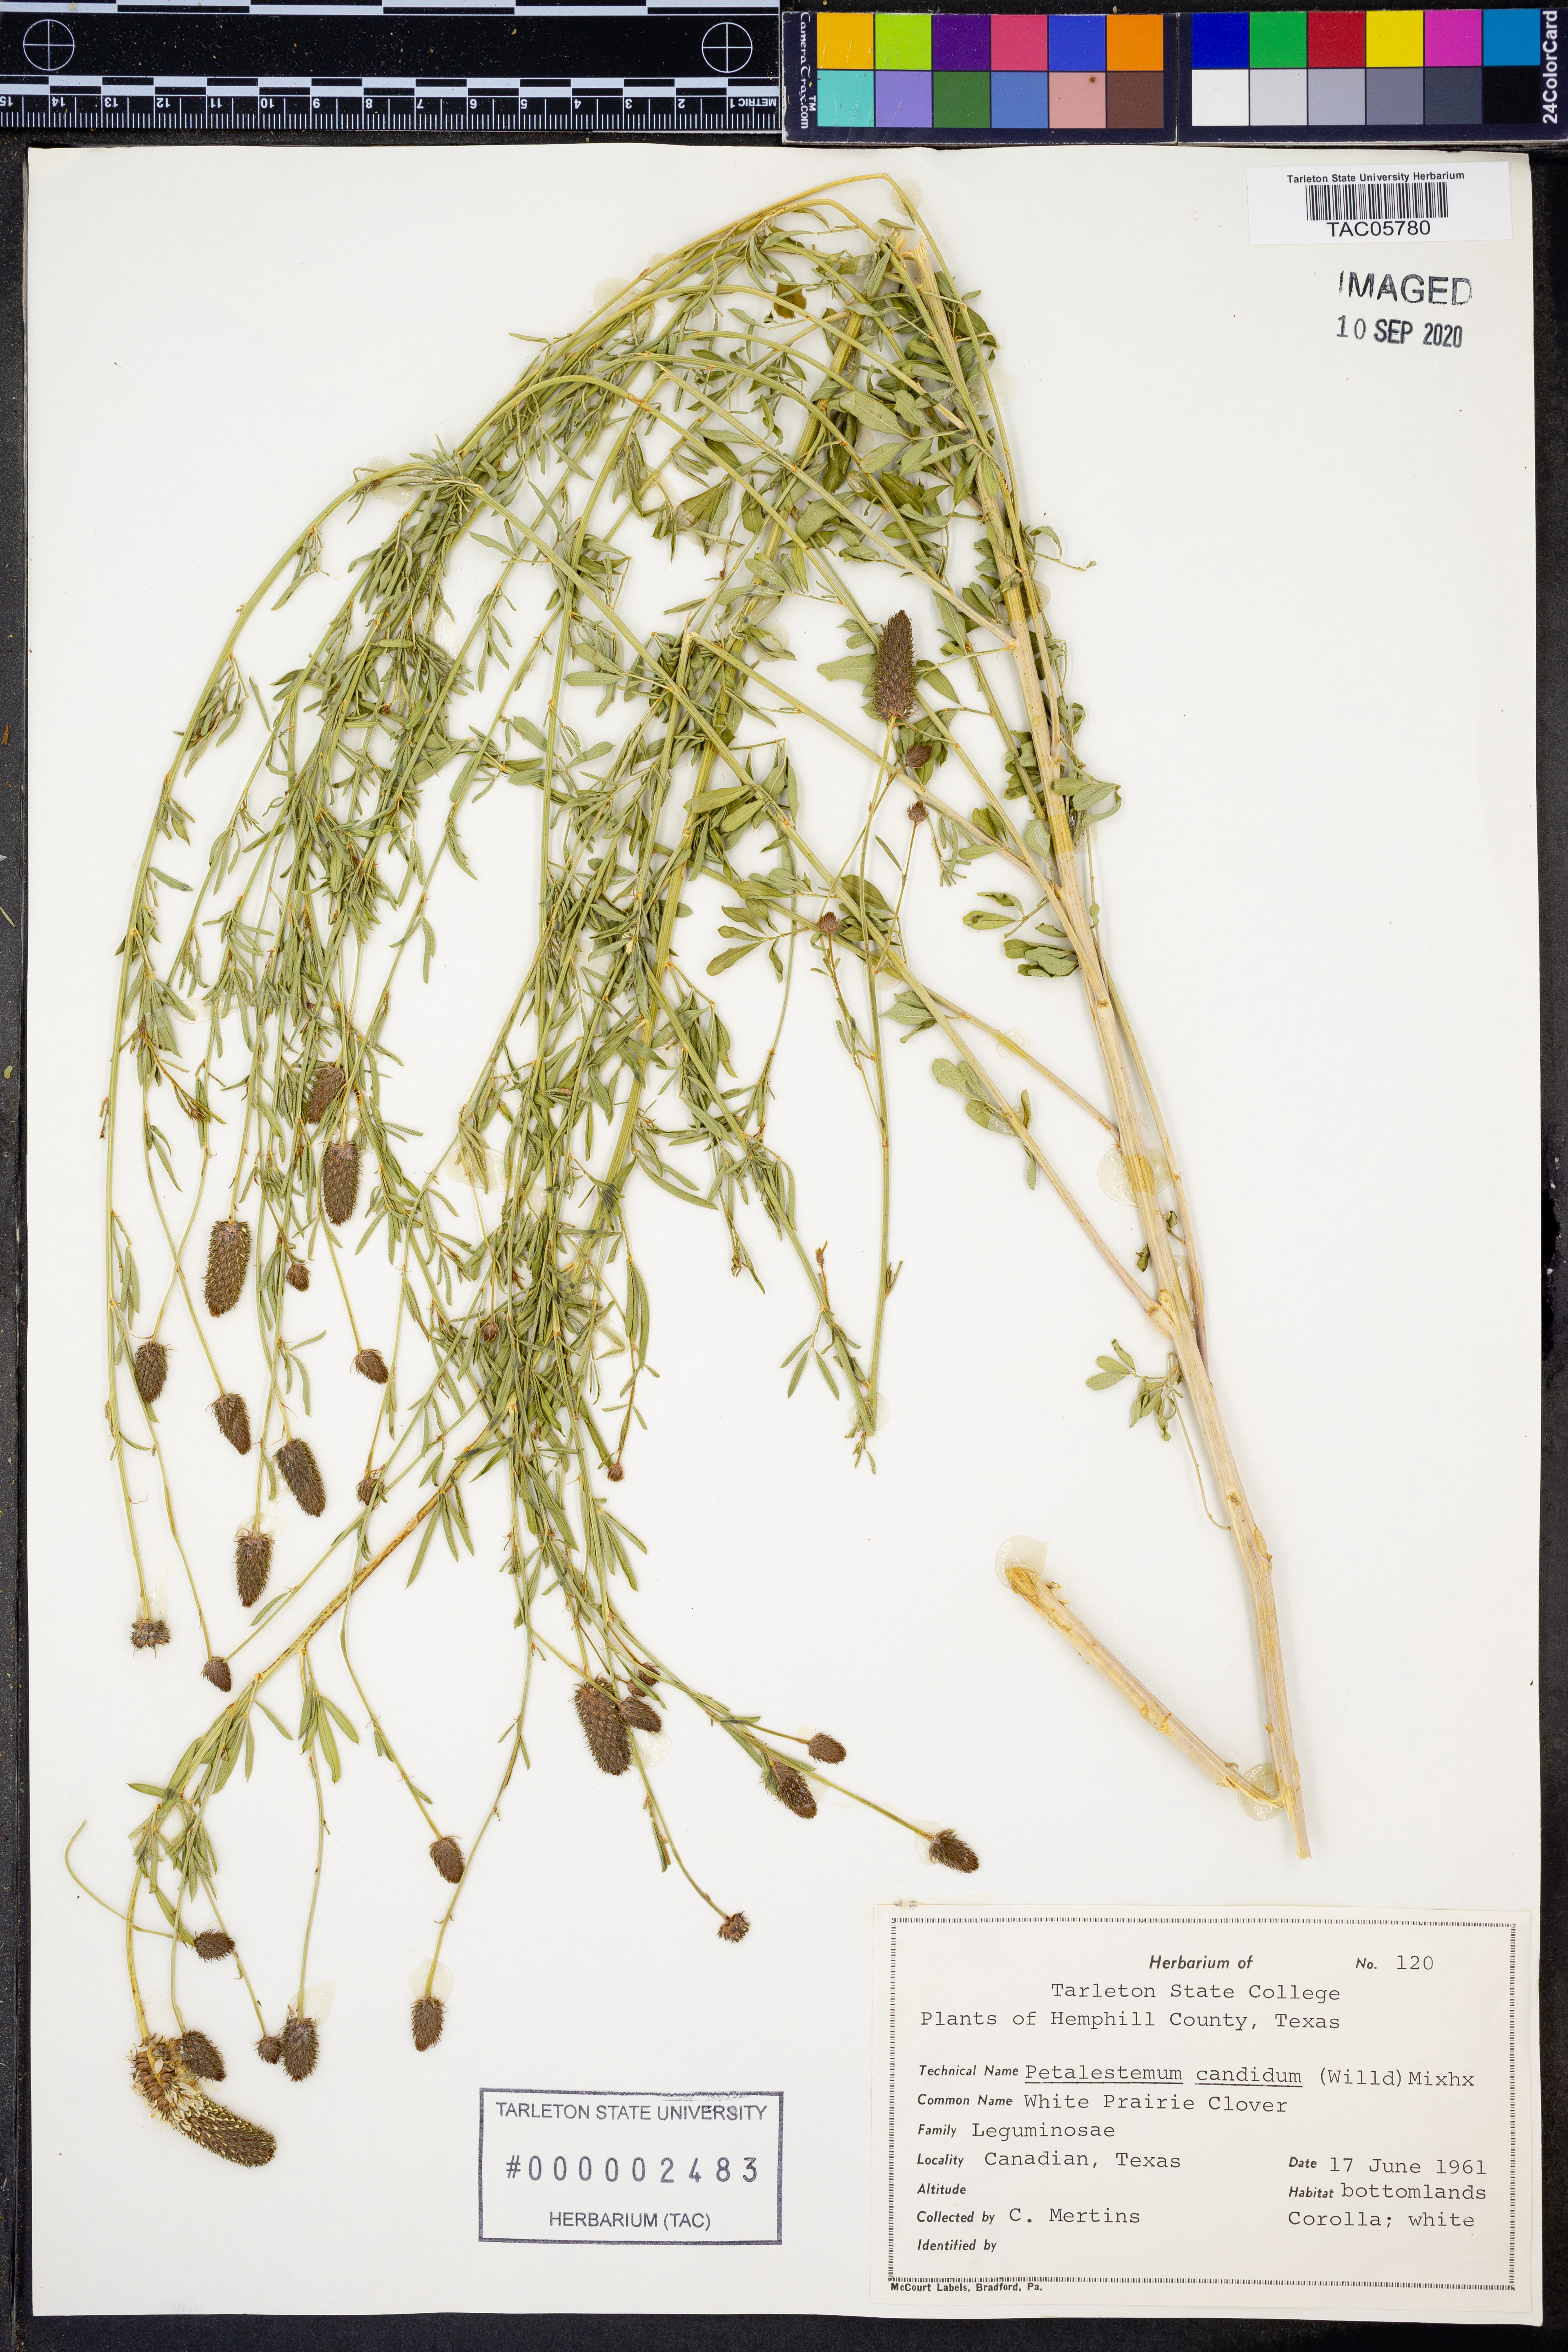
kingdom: Plantae
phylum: Tracheophyta
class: Magnoliopsida
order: Fabales
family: Fabaceae
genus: Dalea
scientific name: Dalea candida
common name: White prairie-clover
